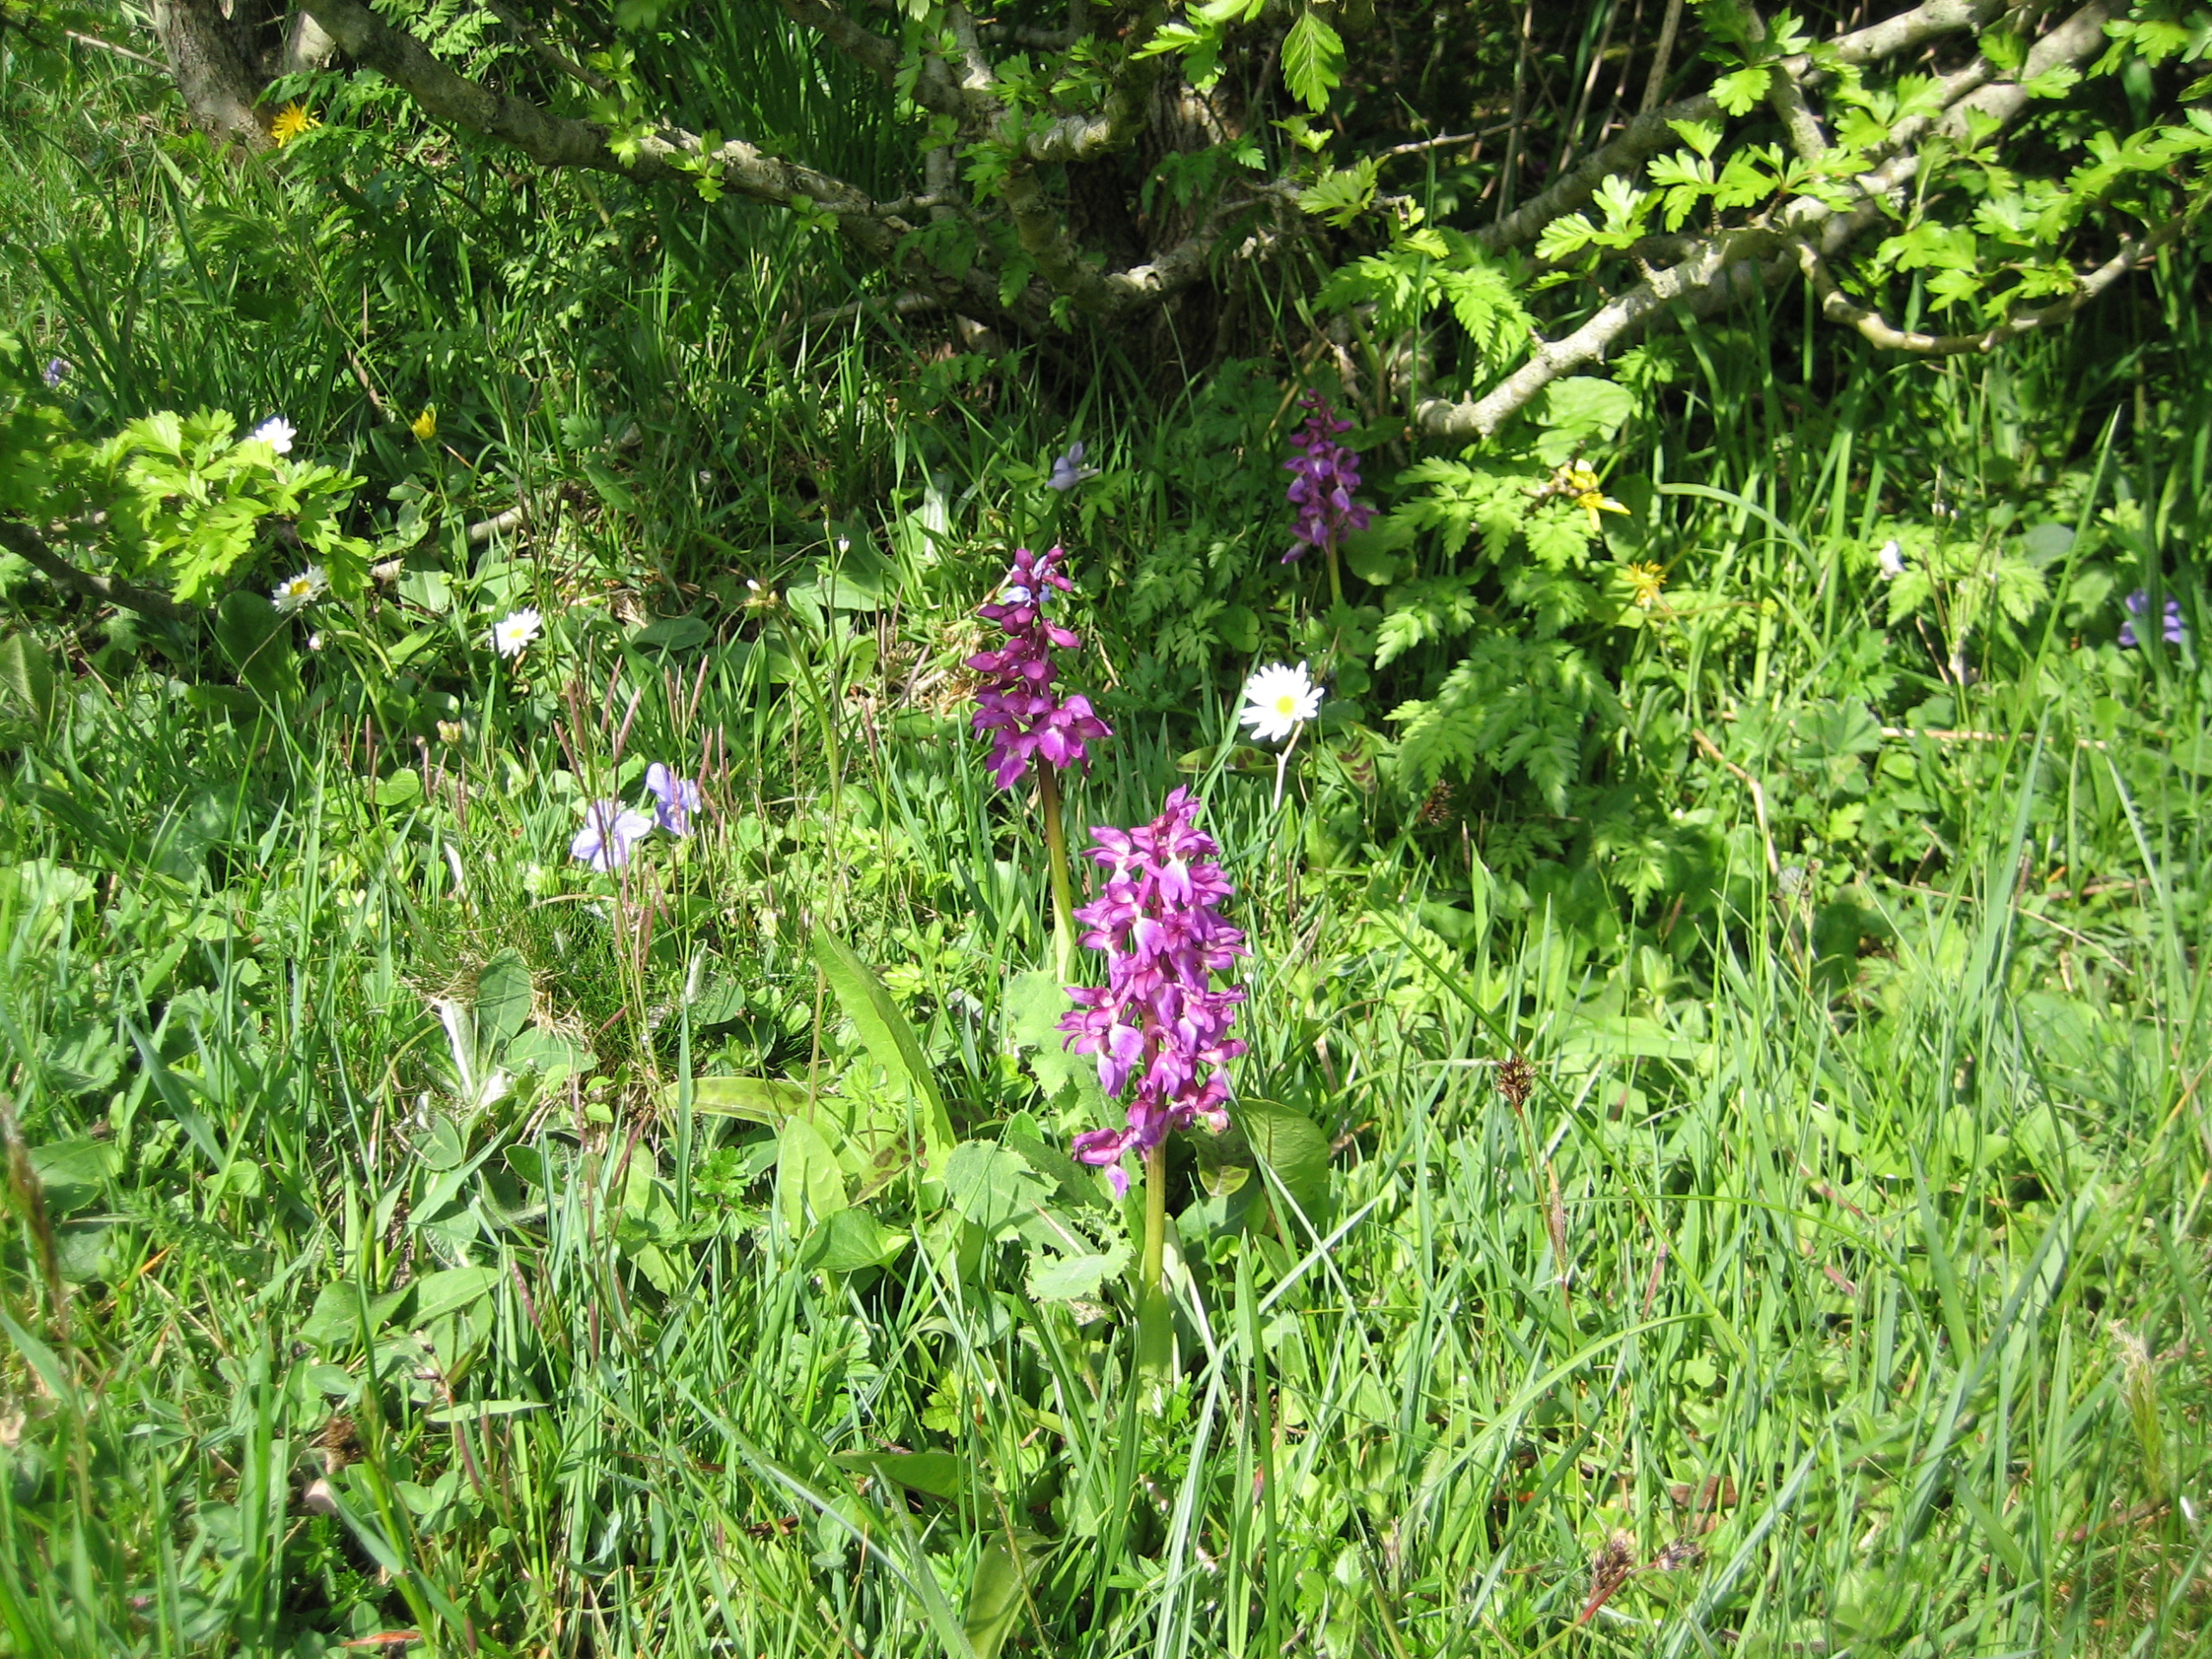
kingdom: Plantae
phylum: Tracheophyta
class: Liliopsida
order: Asparagales
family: Orchidaceae
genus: Orchis
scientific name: Orchis mascula
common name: Tyndakset gøgeurt
